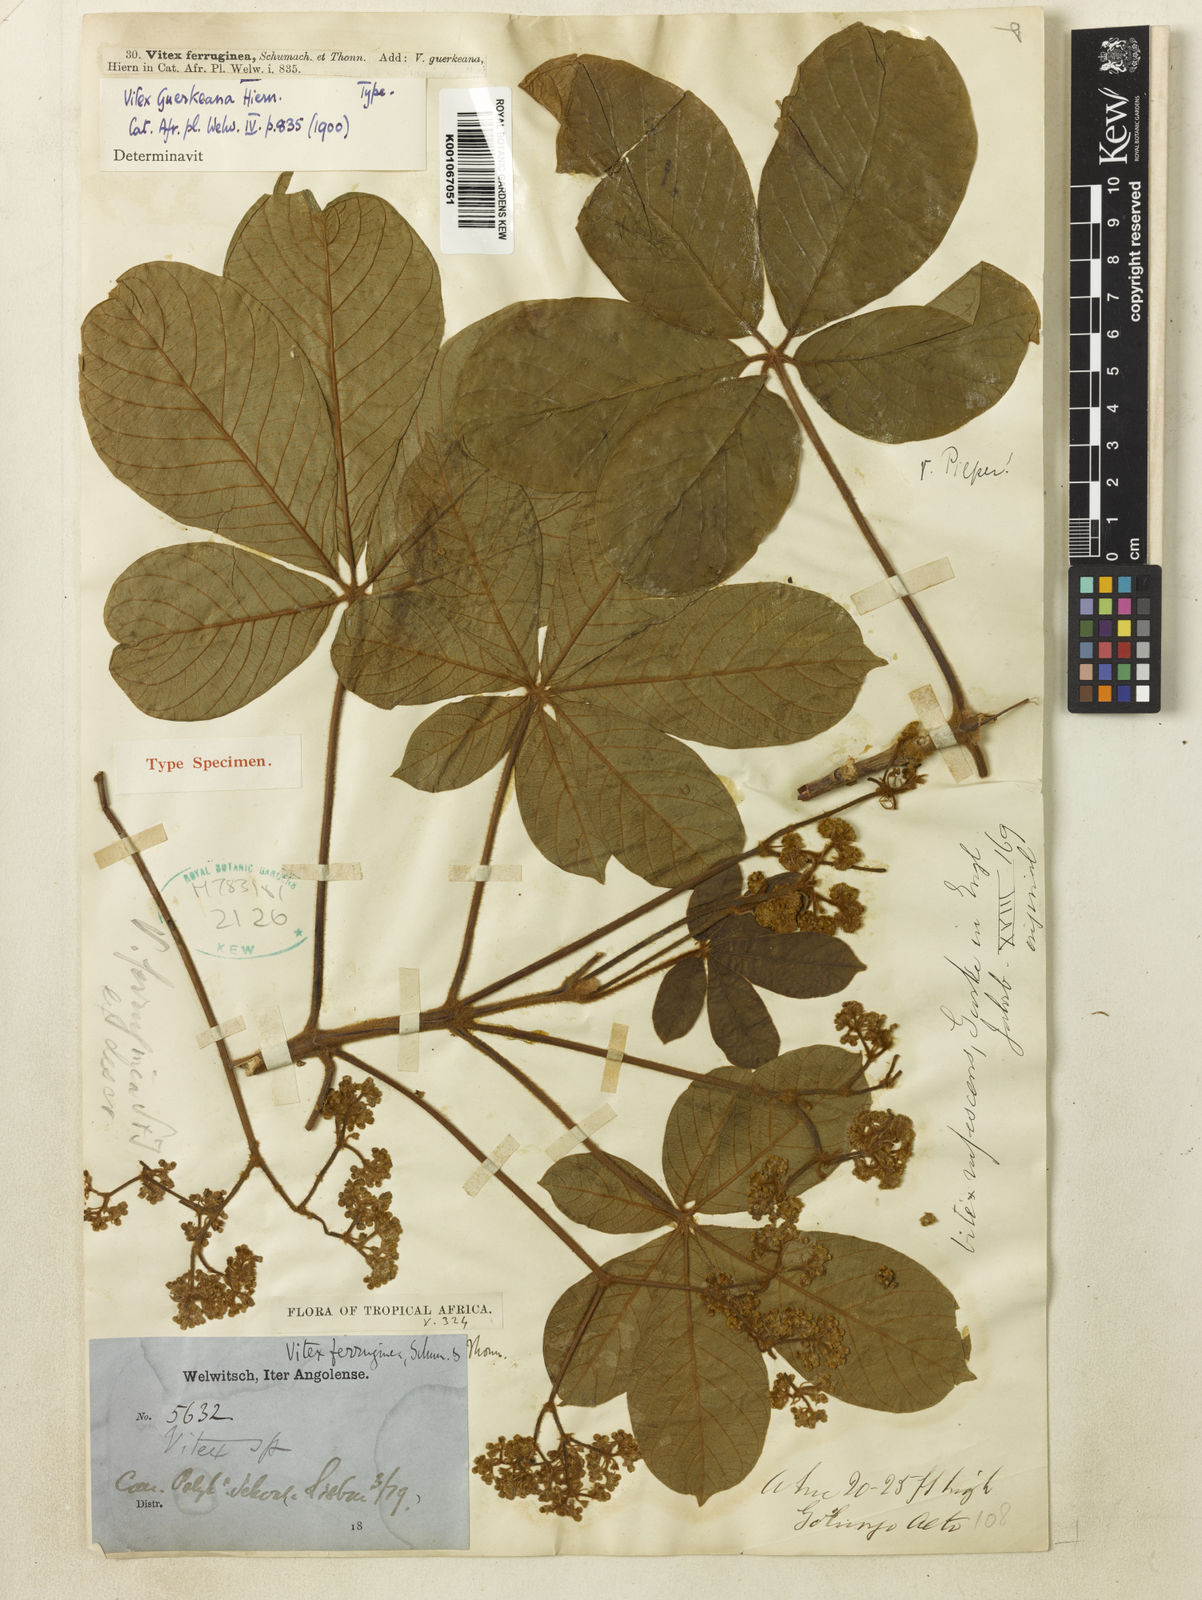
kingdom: Plantae
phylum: Tracheophyta
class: Magnoliopsida
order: Lamiales
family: Lamiaceae
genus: Vitex
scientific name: Vitex ferruginea
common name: Plum fingerleaf
